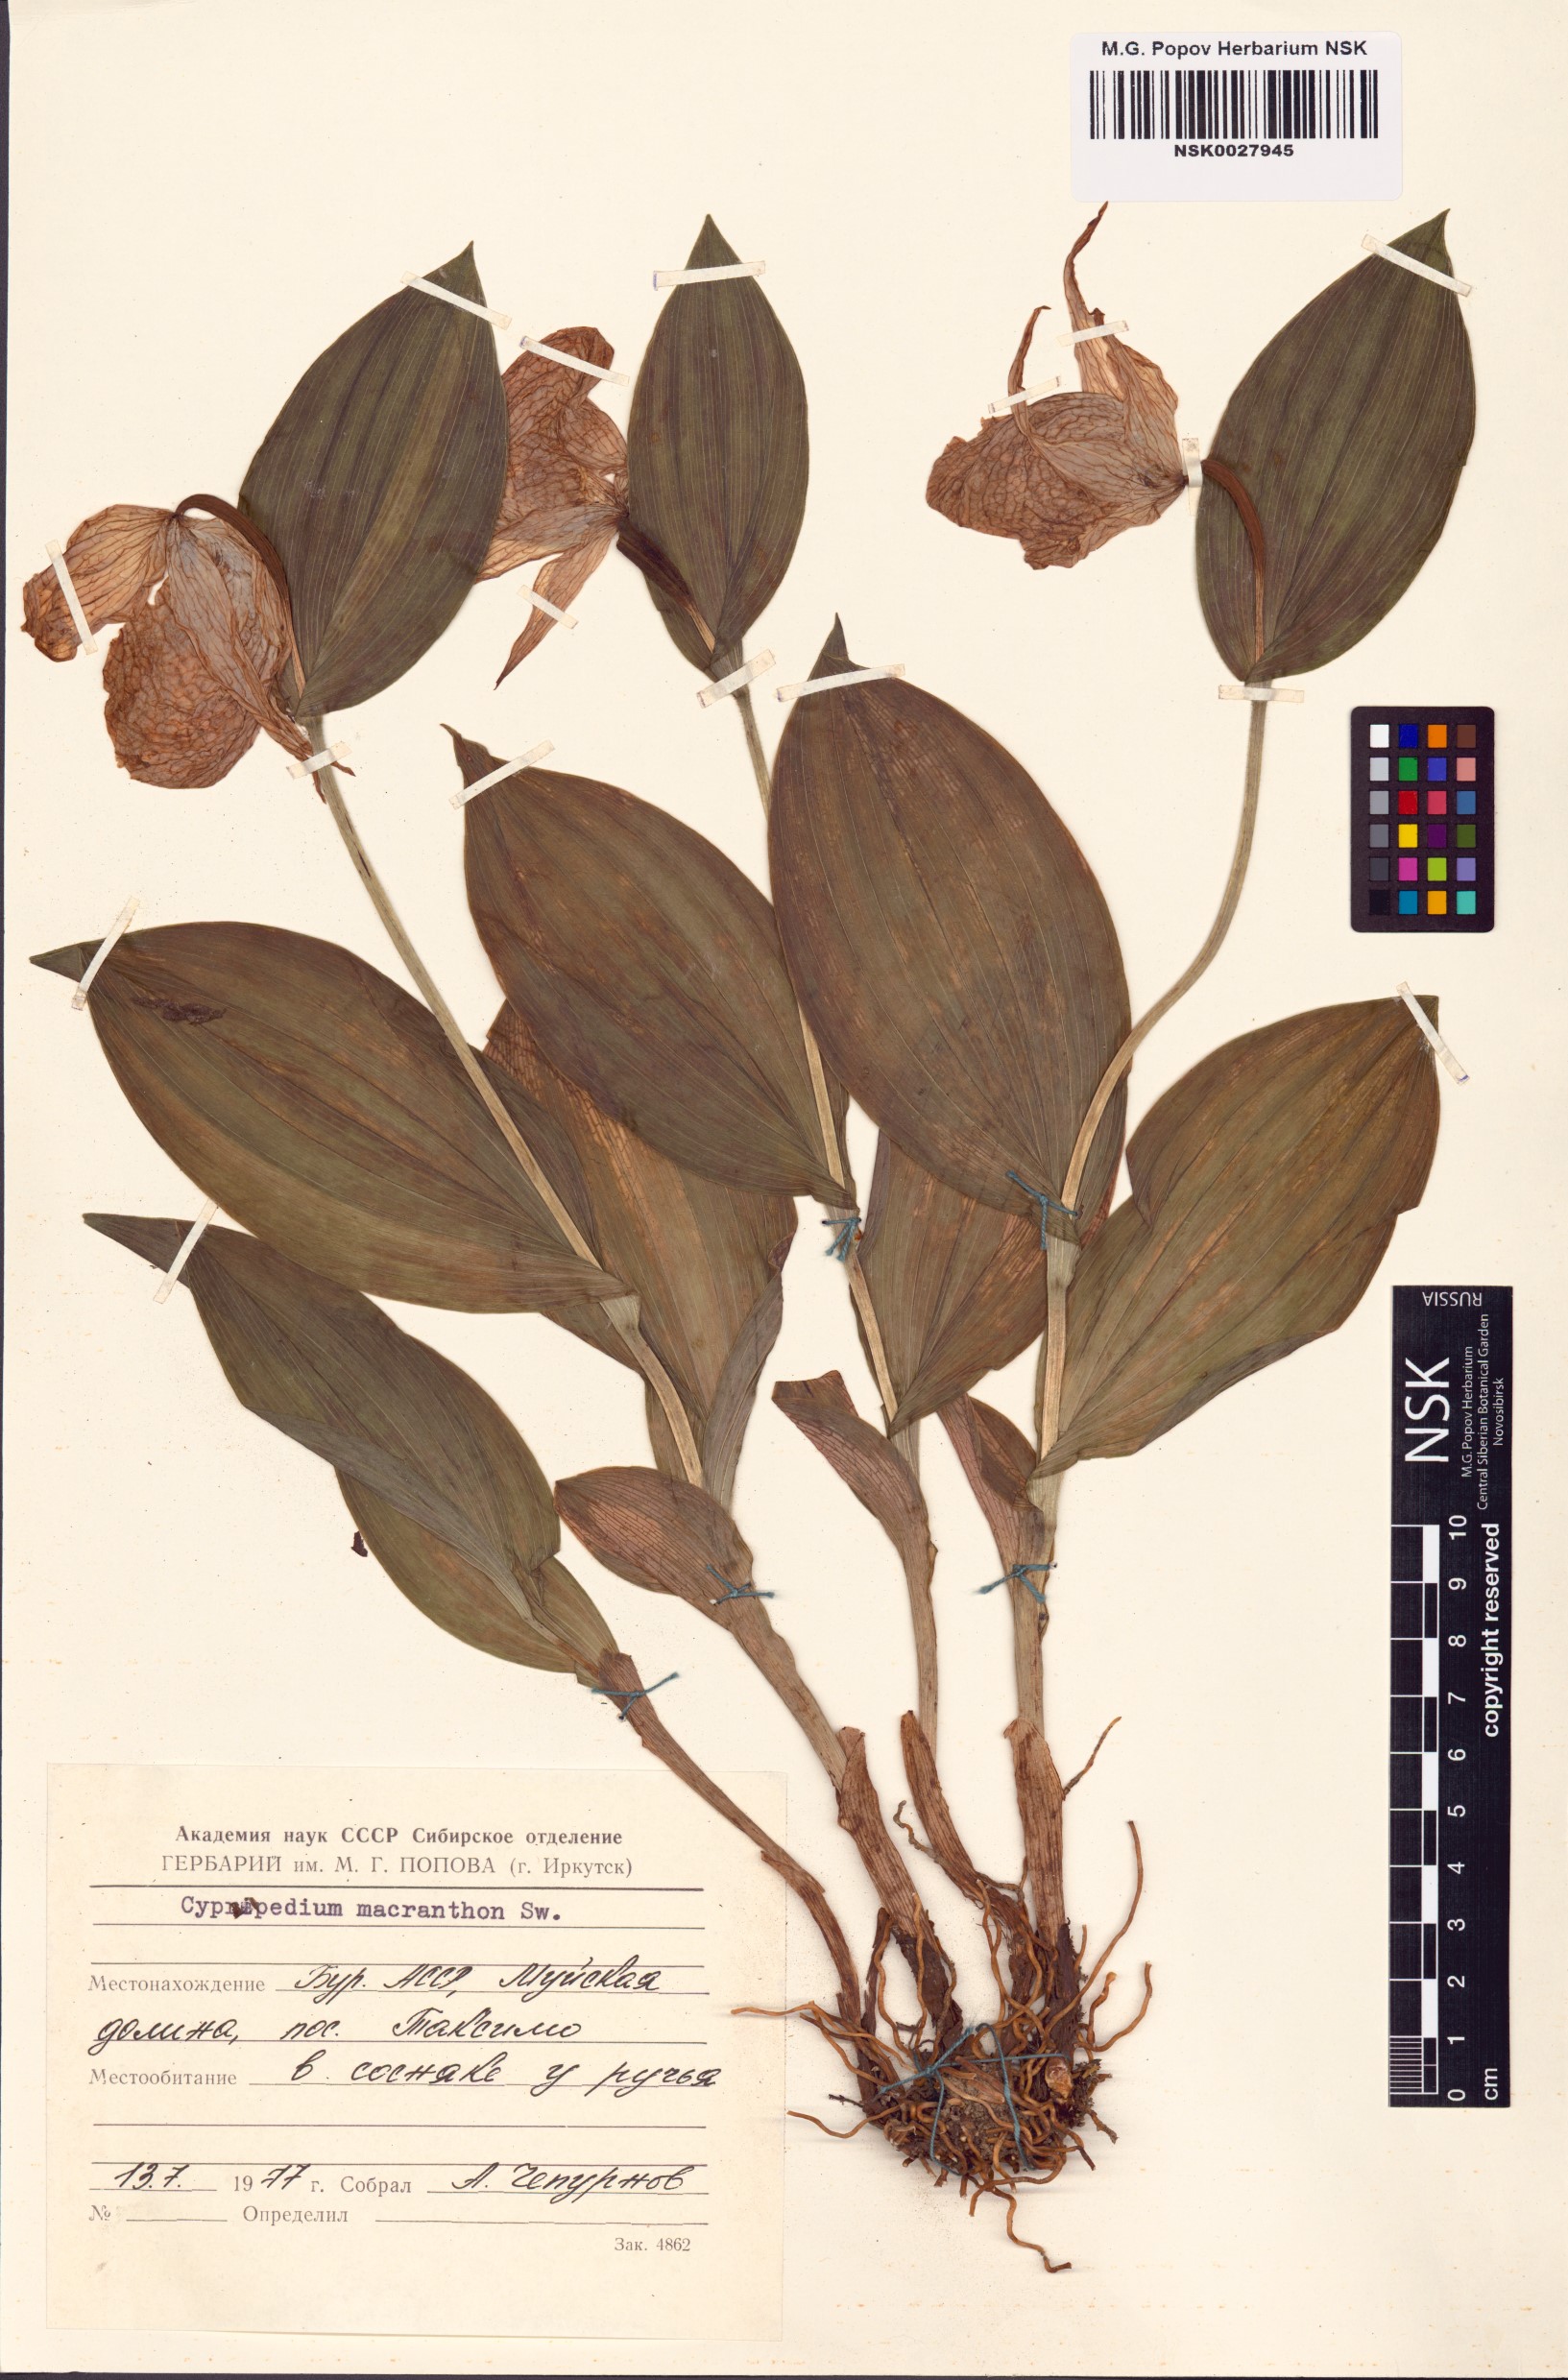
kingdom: Plantae
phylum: Tracheophyta
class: Liliopsida
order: Asparagales
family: Orchidaceae
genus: Cypripedium
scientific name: Cypripedium macranthos
